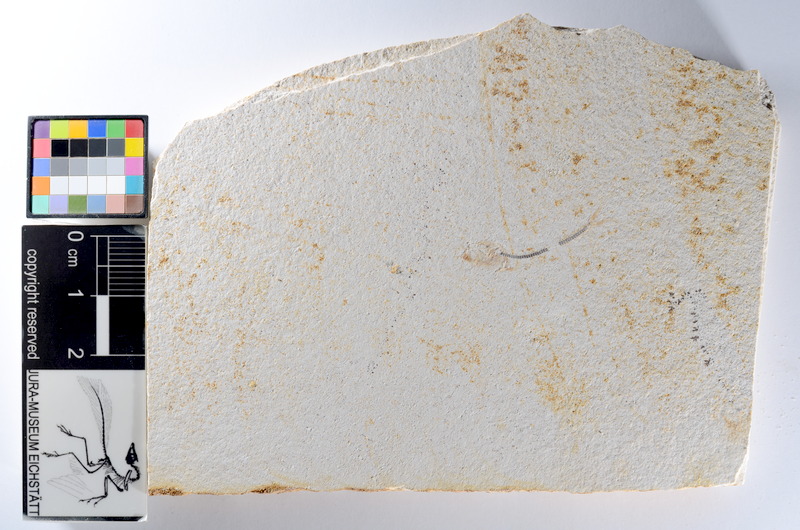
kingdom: Animalia
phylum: Chordata
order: Salmoniformes
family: Orthogonikleithridae
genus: Orthogonikleithrus
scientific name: Orthogonikleithrus hoelli
